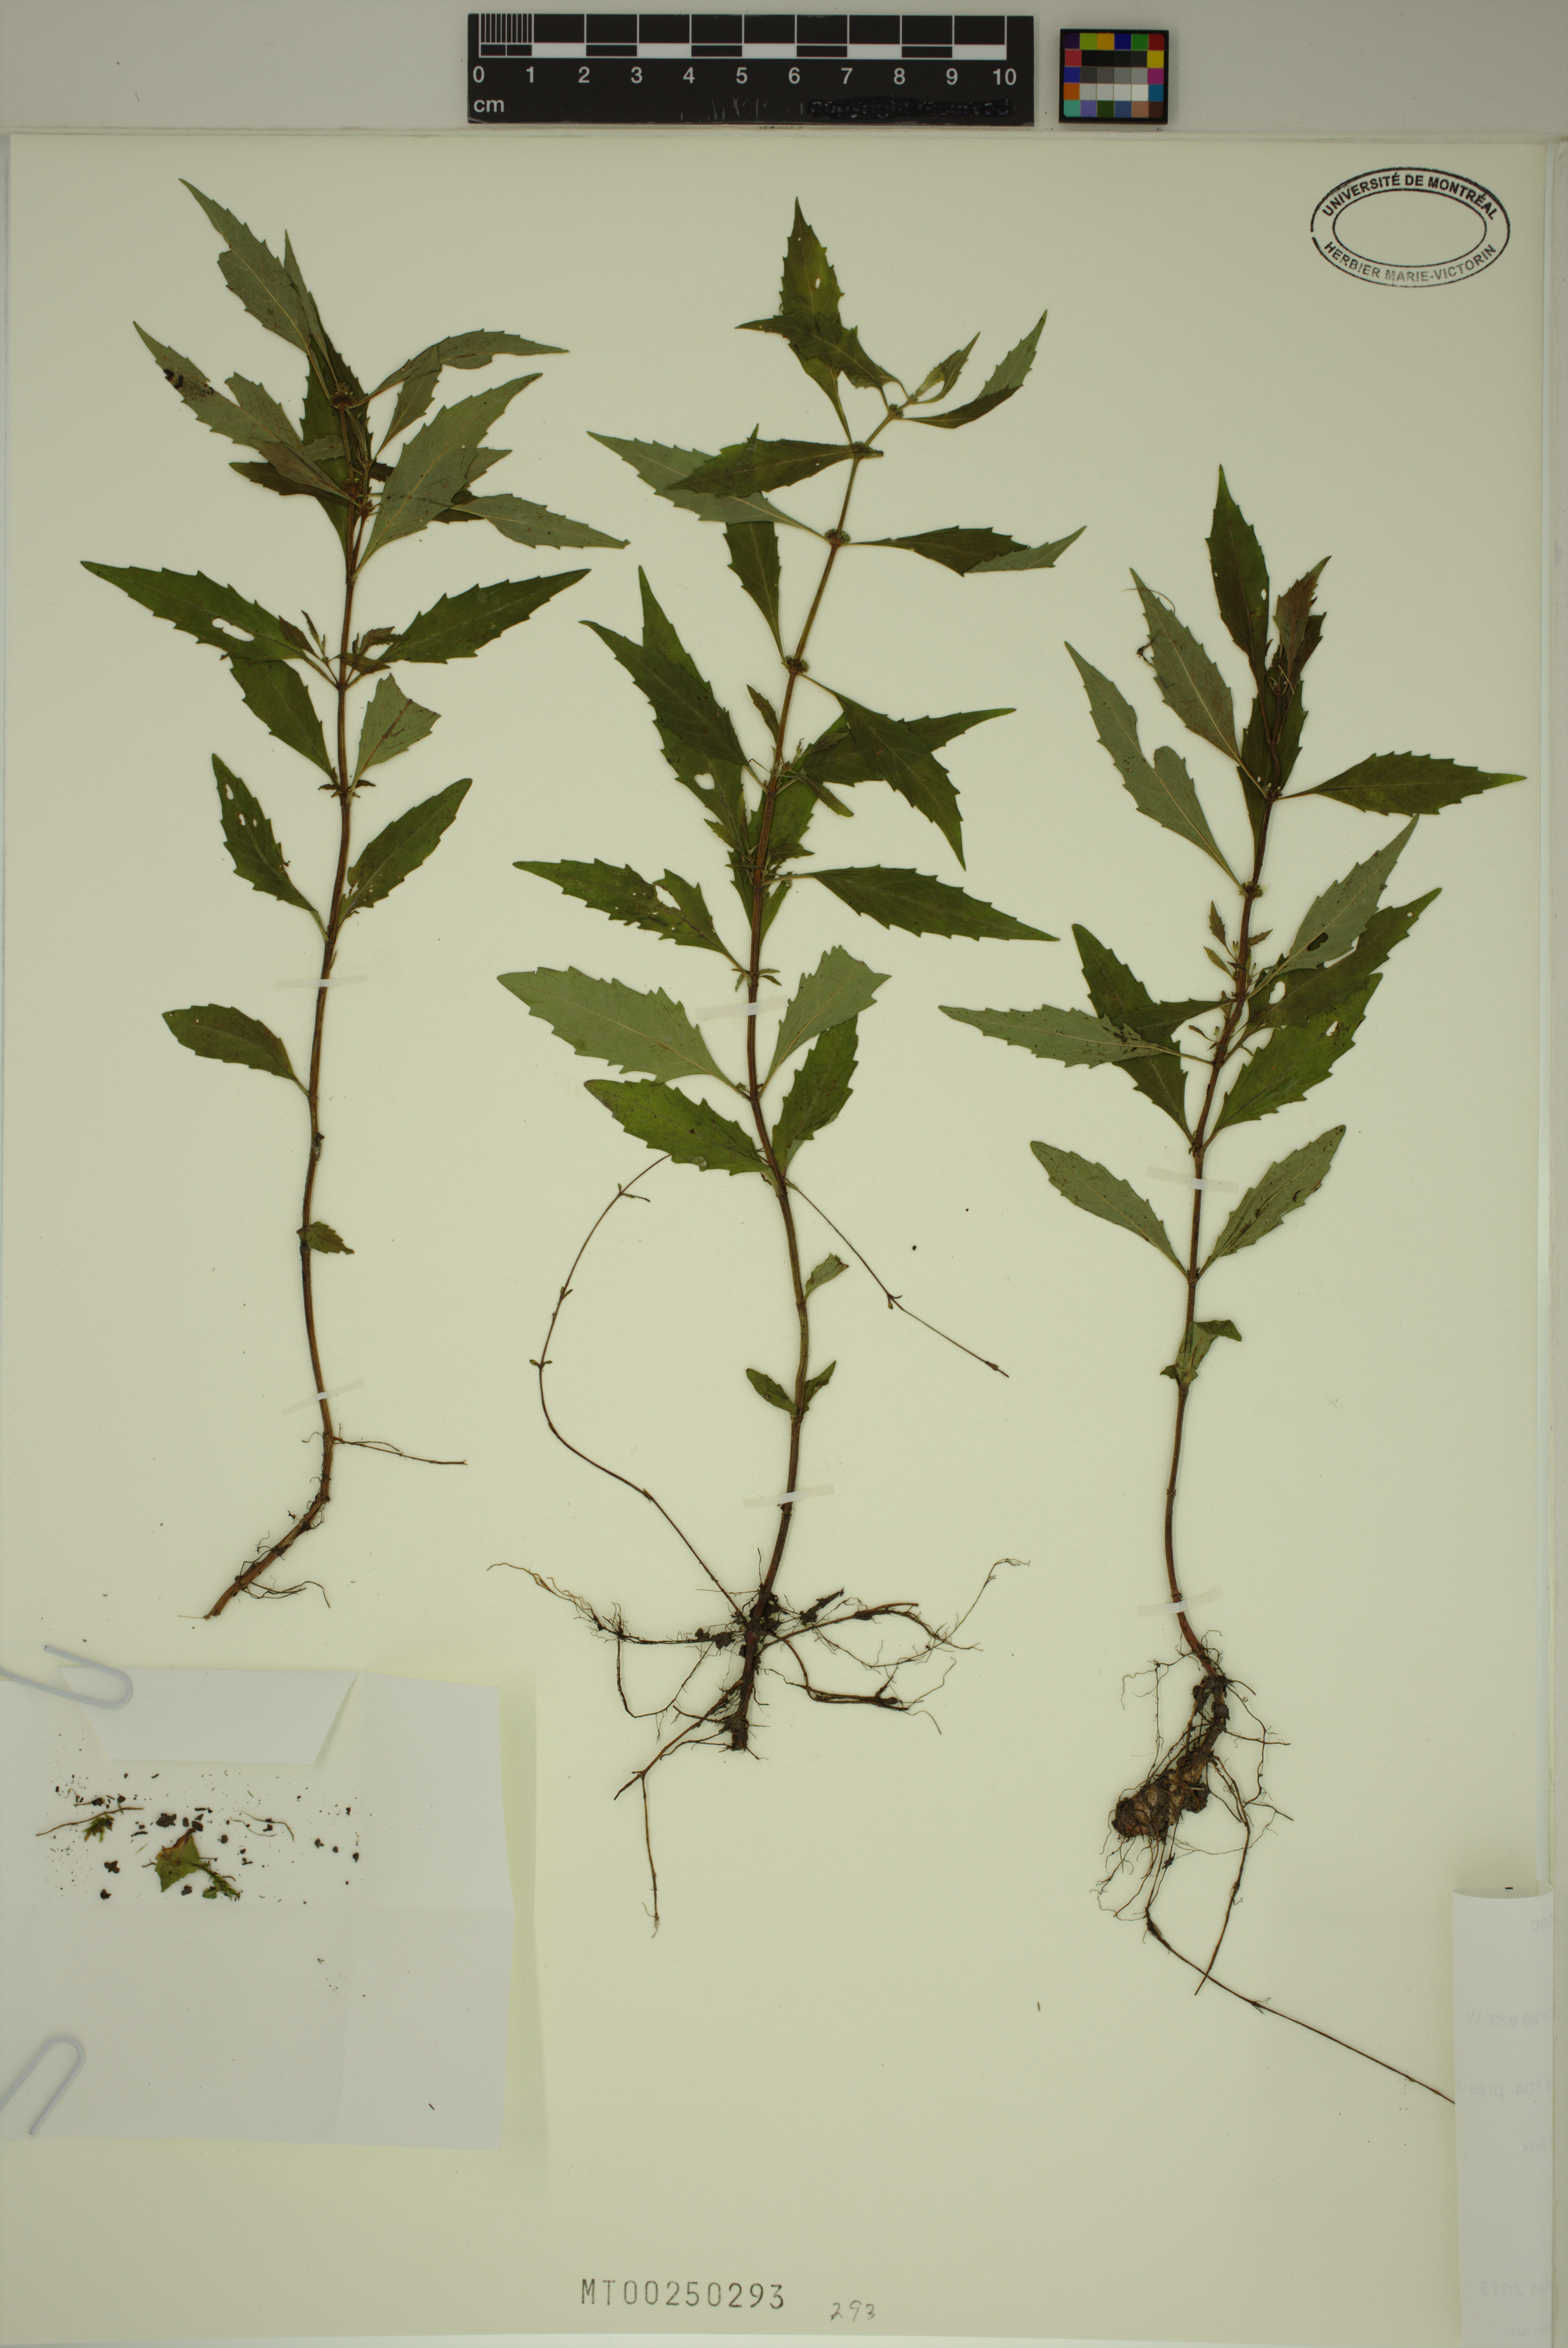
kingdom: Plantae
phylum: Tracheophyta
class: Magnoliopsida
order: Lamiales
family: Lamiaceae
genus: Lycopus
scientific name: Lycopus uniflorus
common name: Northern bugleweed
